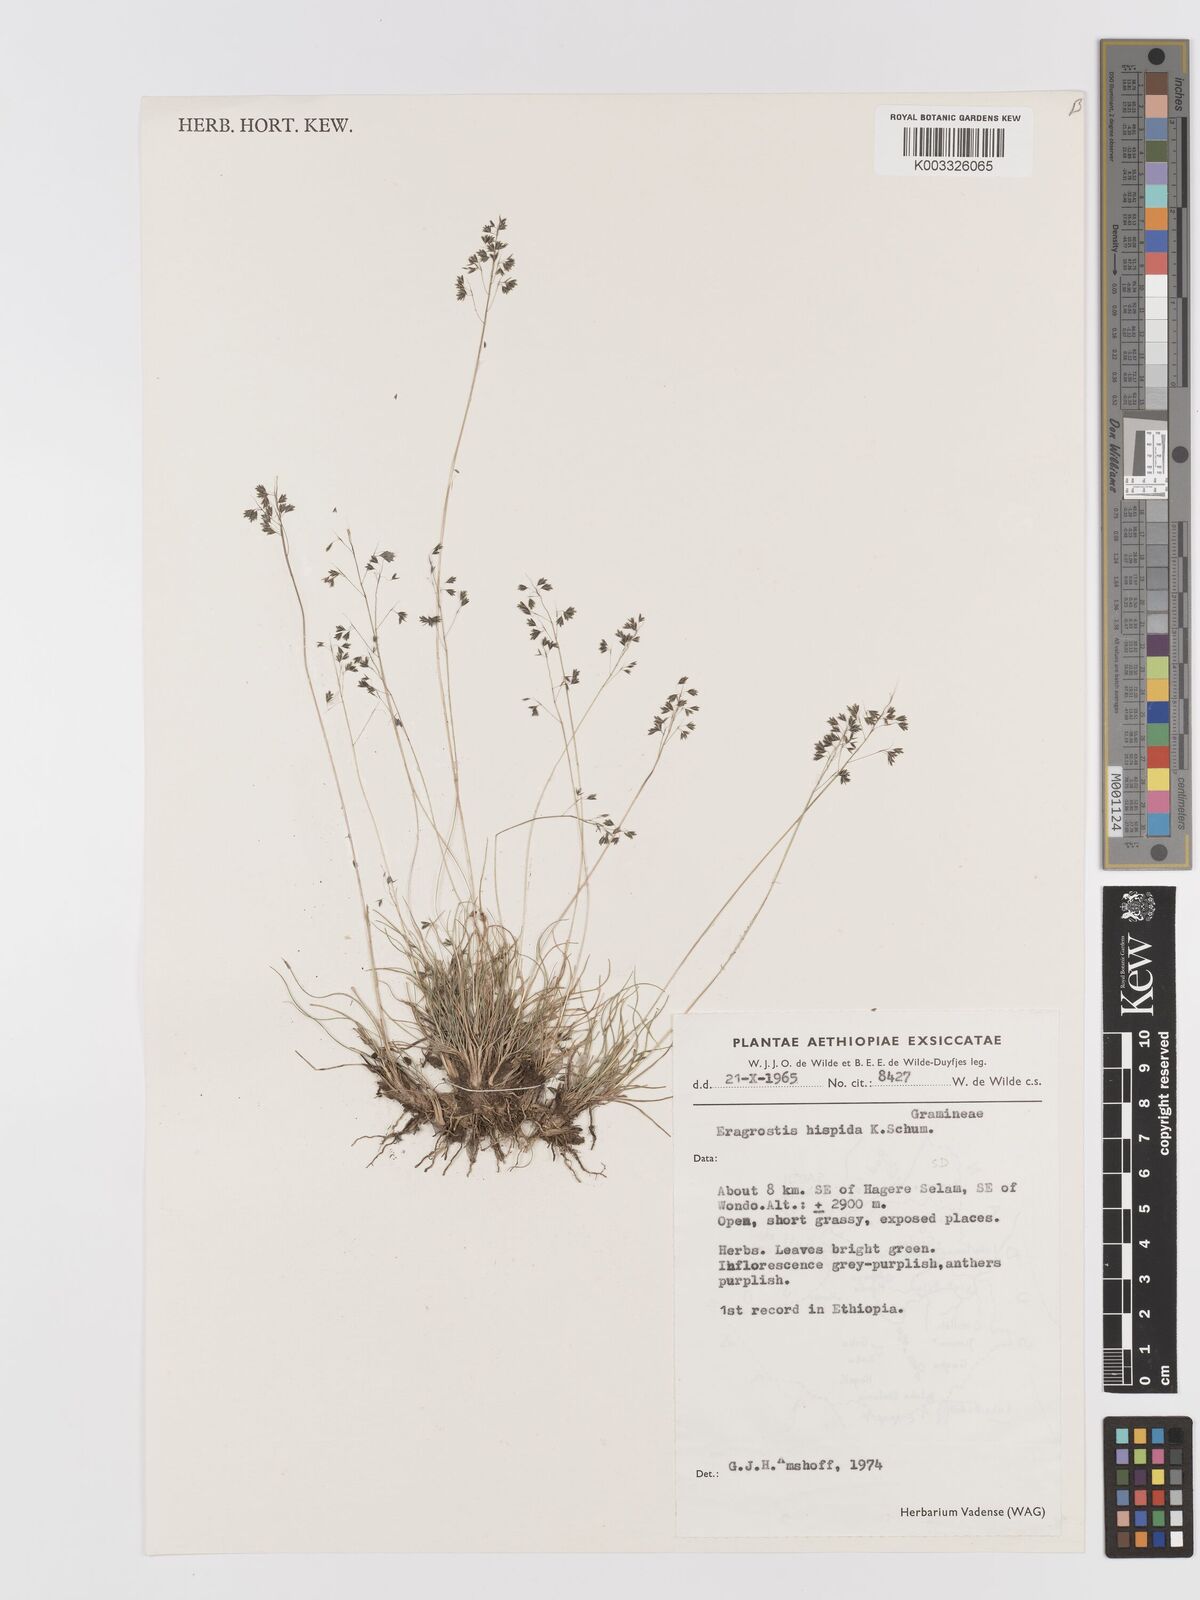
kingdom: Plantae
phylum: Tracheophyta
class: Liliopsida
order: Poales
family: Poaceae
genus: Eragrostis
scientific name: Eragrostis hispida
